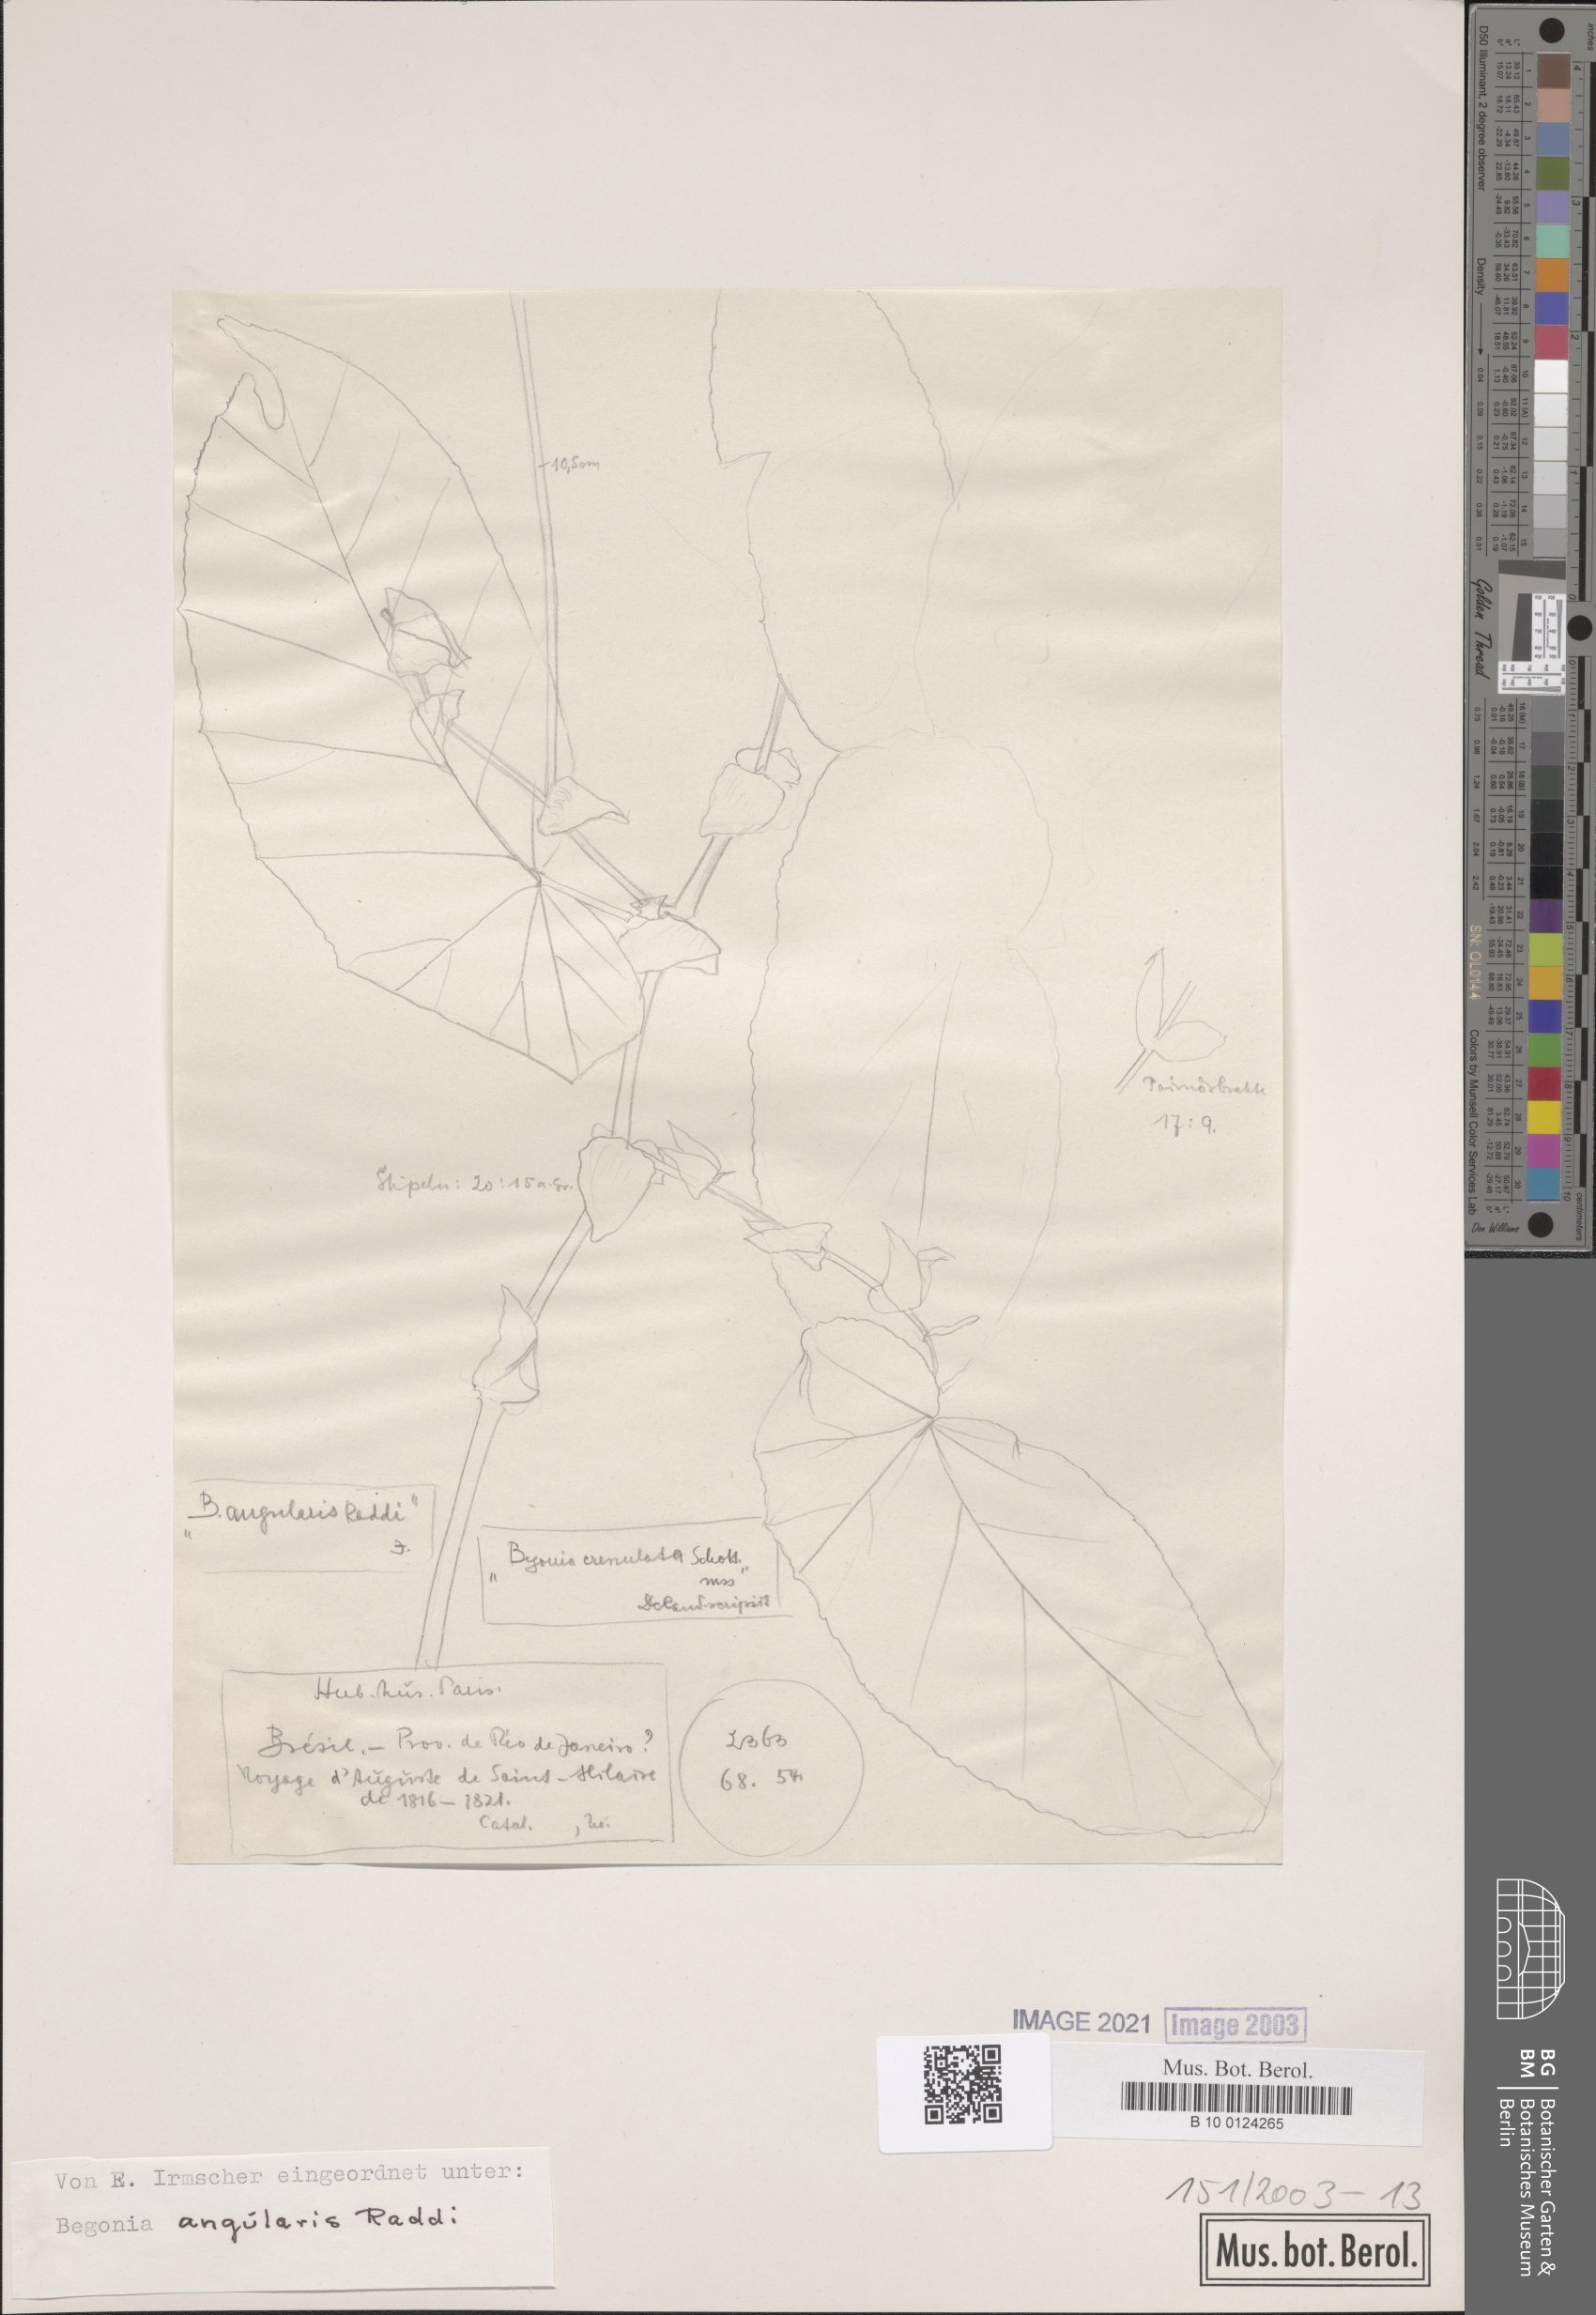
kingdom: Plantae
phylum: Tracheophyta
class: Magnoliopsida
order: Cucurbitales
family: Begoniaceae
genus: Begonia
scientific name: Begonia angularis
